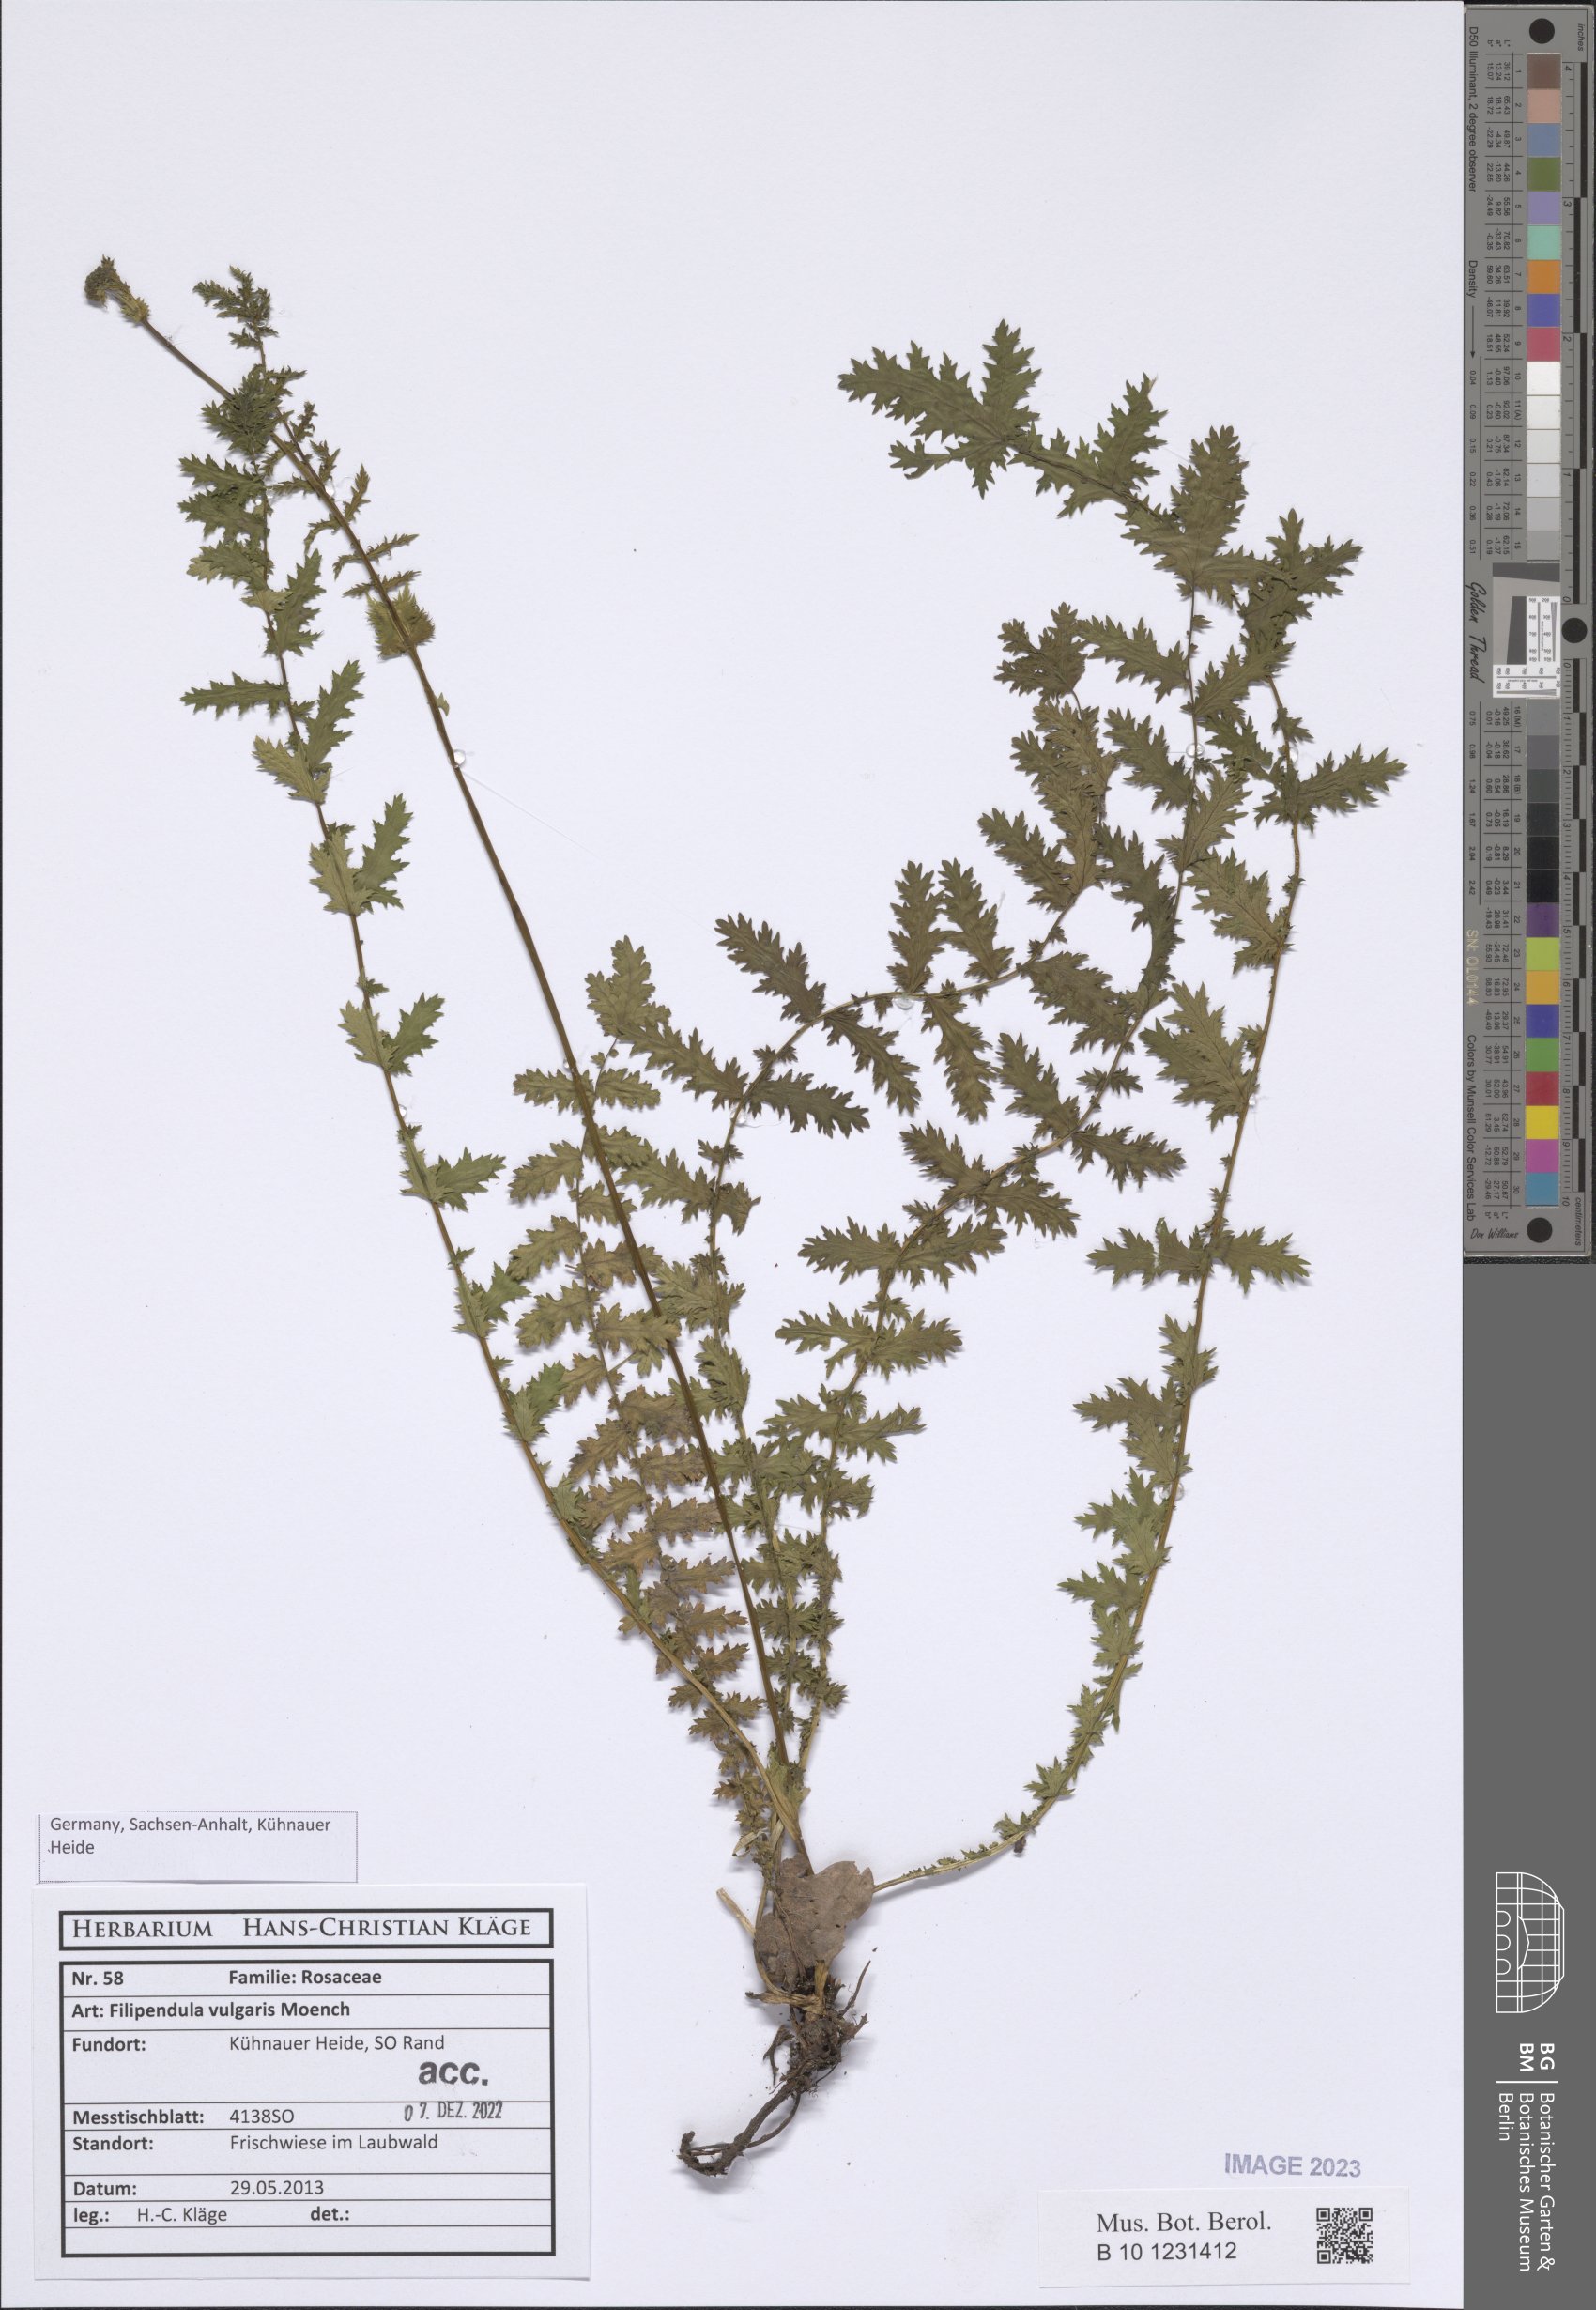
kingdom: Plantae
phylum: Tracheophyta
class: Magnoliopsida
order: Rosales
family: Rosaceae
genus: Filipendula
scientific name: Filipendula vulgaris
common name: Dropwort
